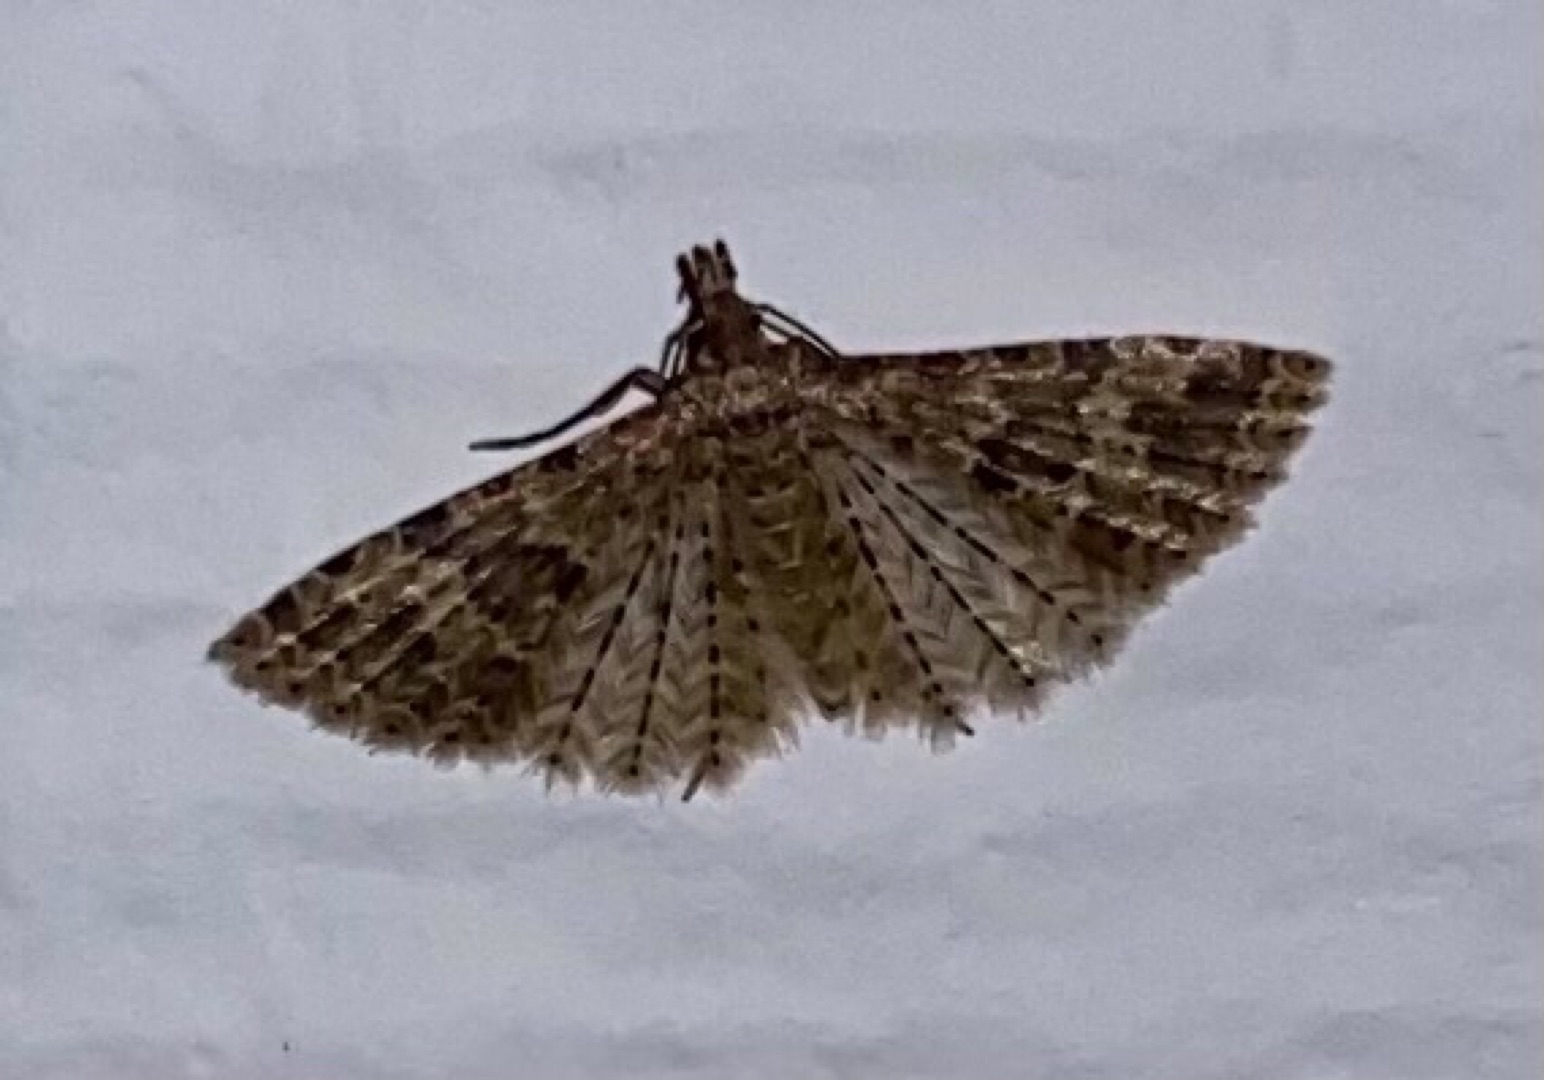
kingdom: Animalia
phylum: Arthropoda
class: Insecta
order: Lepidoptera
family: Alucitidae
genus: Alucita
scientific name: Alucita hexadactyla
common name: Kaprifoliefjermøl
